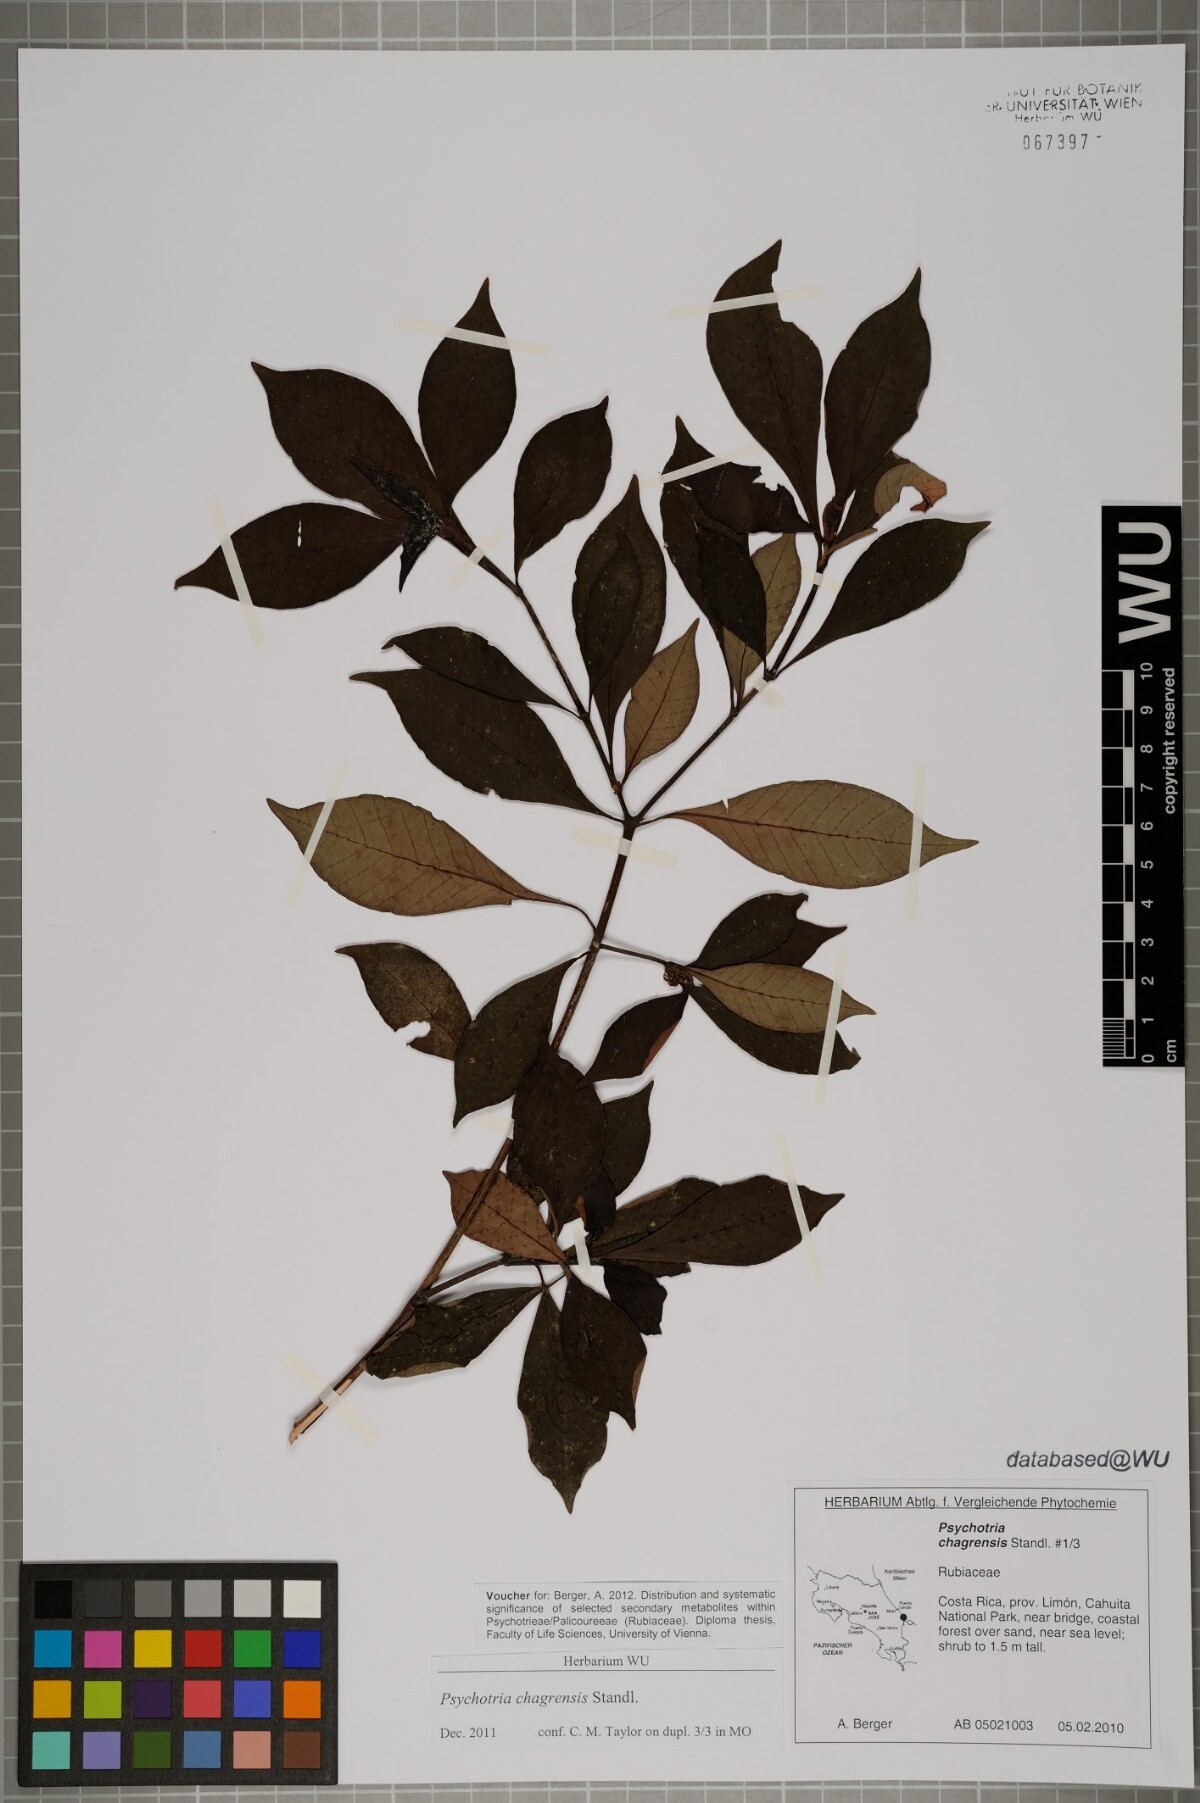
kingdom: Plantae
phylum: Tracheophyta
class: Magnoliopsida
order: Gentianales
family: Rubiaceae
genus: Psychotria
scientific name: Psychotria chagrensis
